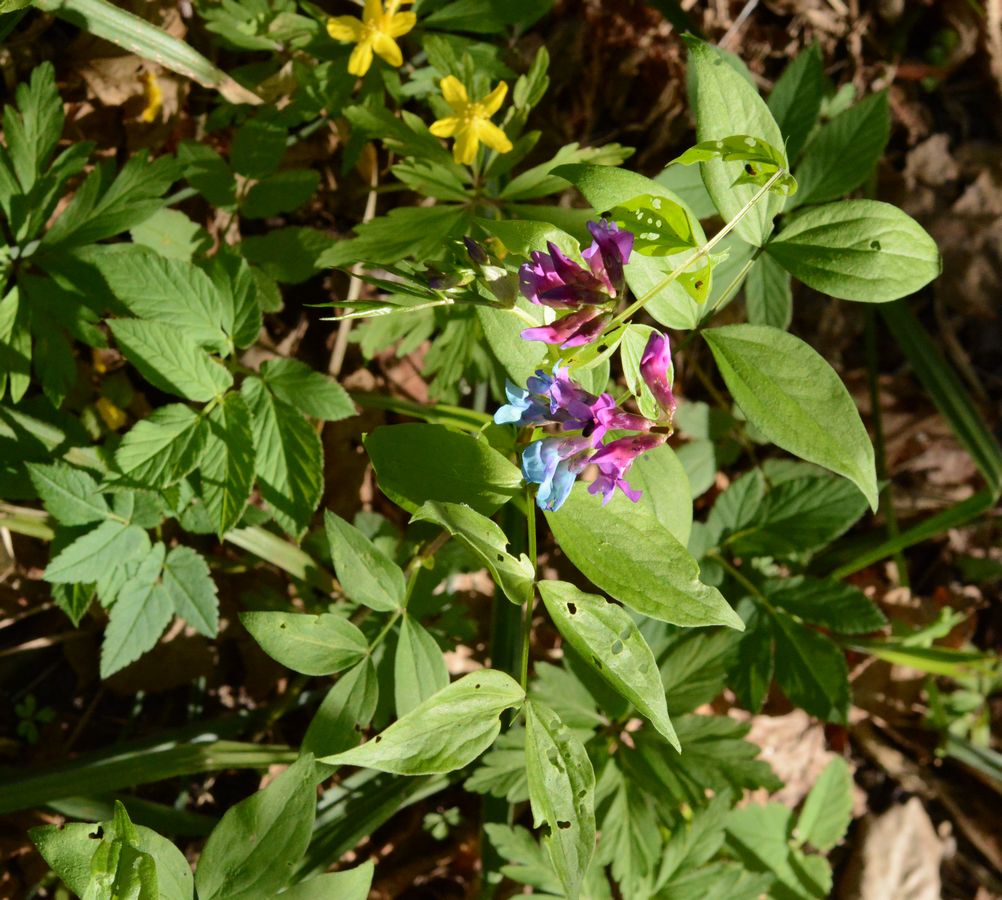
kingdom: Plantae
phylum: Tracheophyta
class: Magnoliopsida
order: Fabales
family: Fabaceae
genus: Lathyrus
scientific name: Lathyrus vernus
